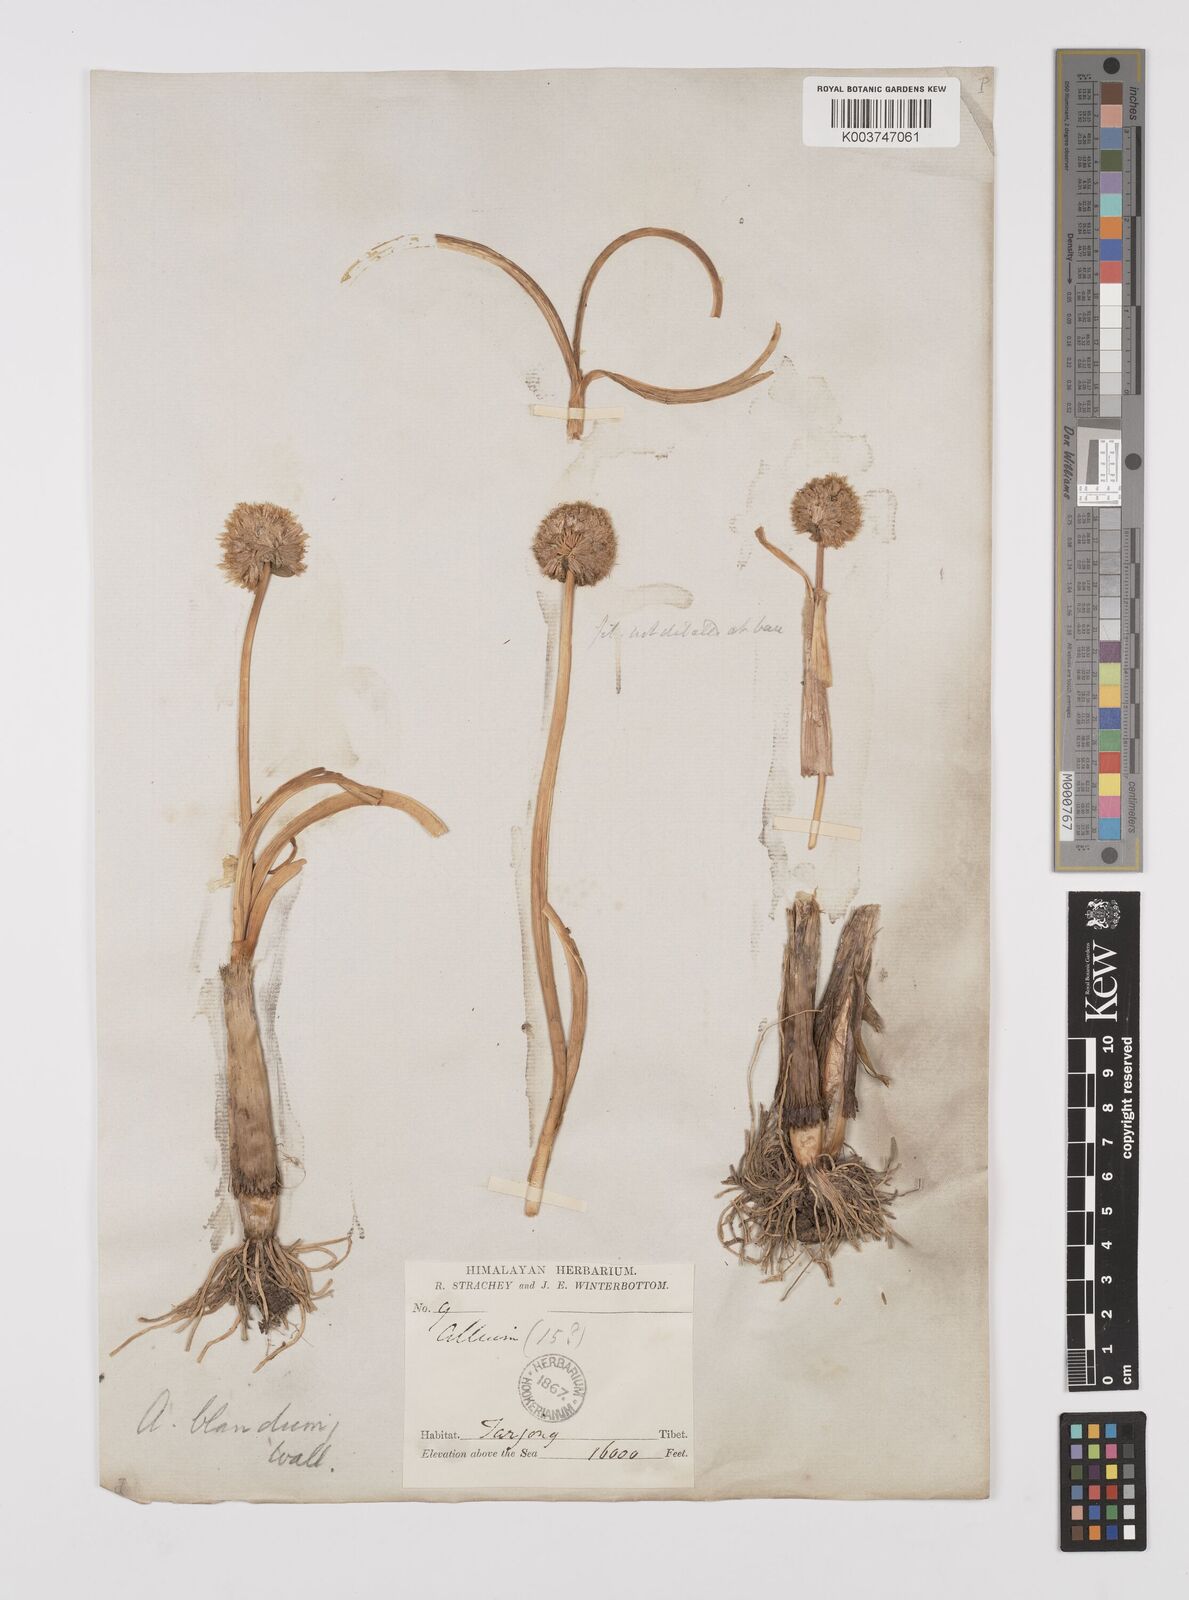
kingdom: Plantae
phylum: Tracheophyta
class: Liliopsida
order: Asparagales
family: Amaryllidaceae
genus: Allium
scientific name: Allium blandum
